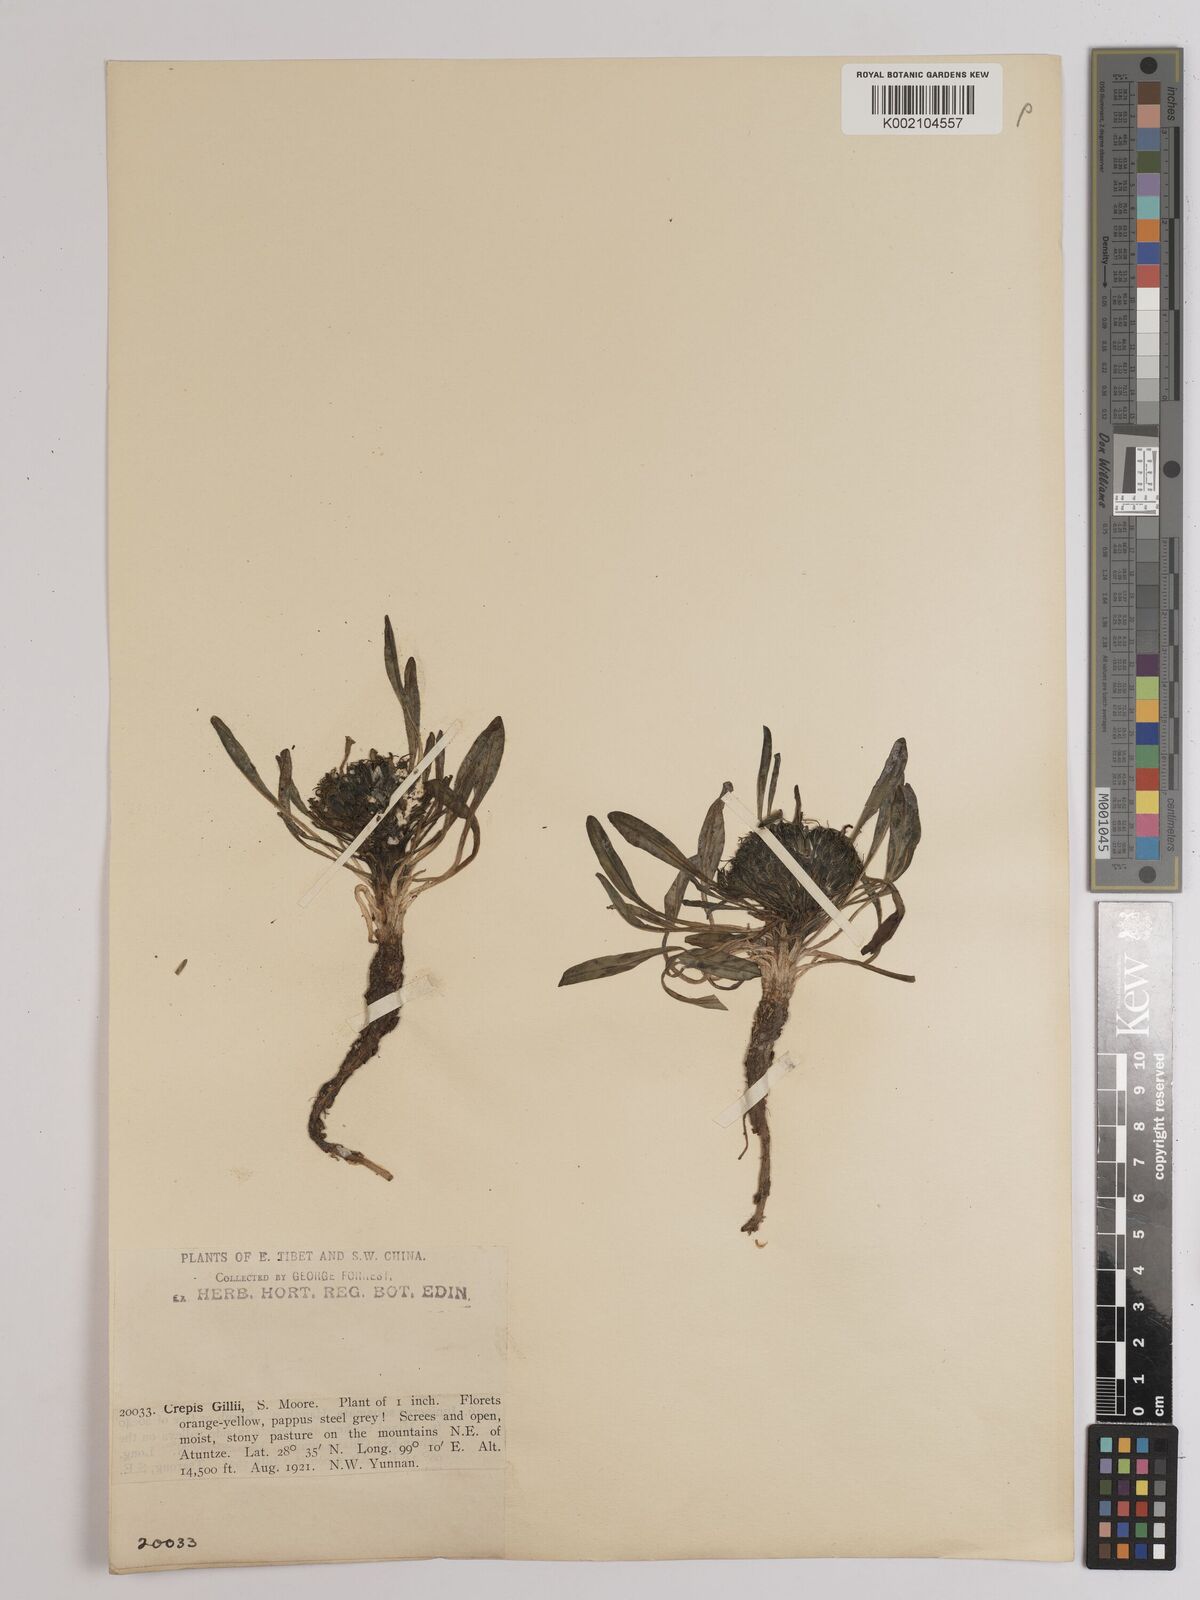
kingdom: Plantae
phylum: Tracheophyta
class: Magnoliopsida
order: Asterales
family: Asteraceae
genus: Soroseris
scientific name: Soroseris hookeriana
